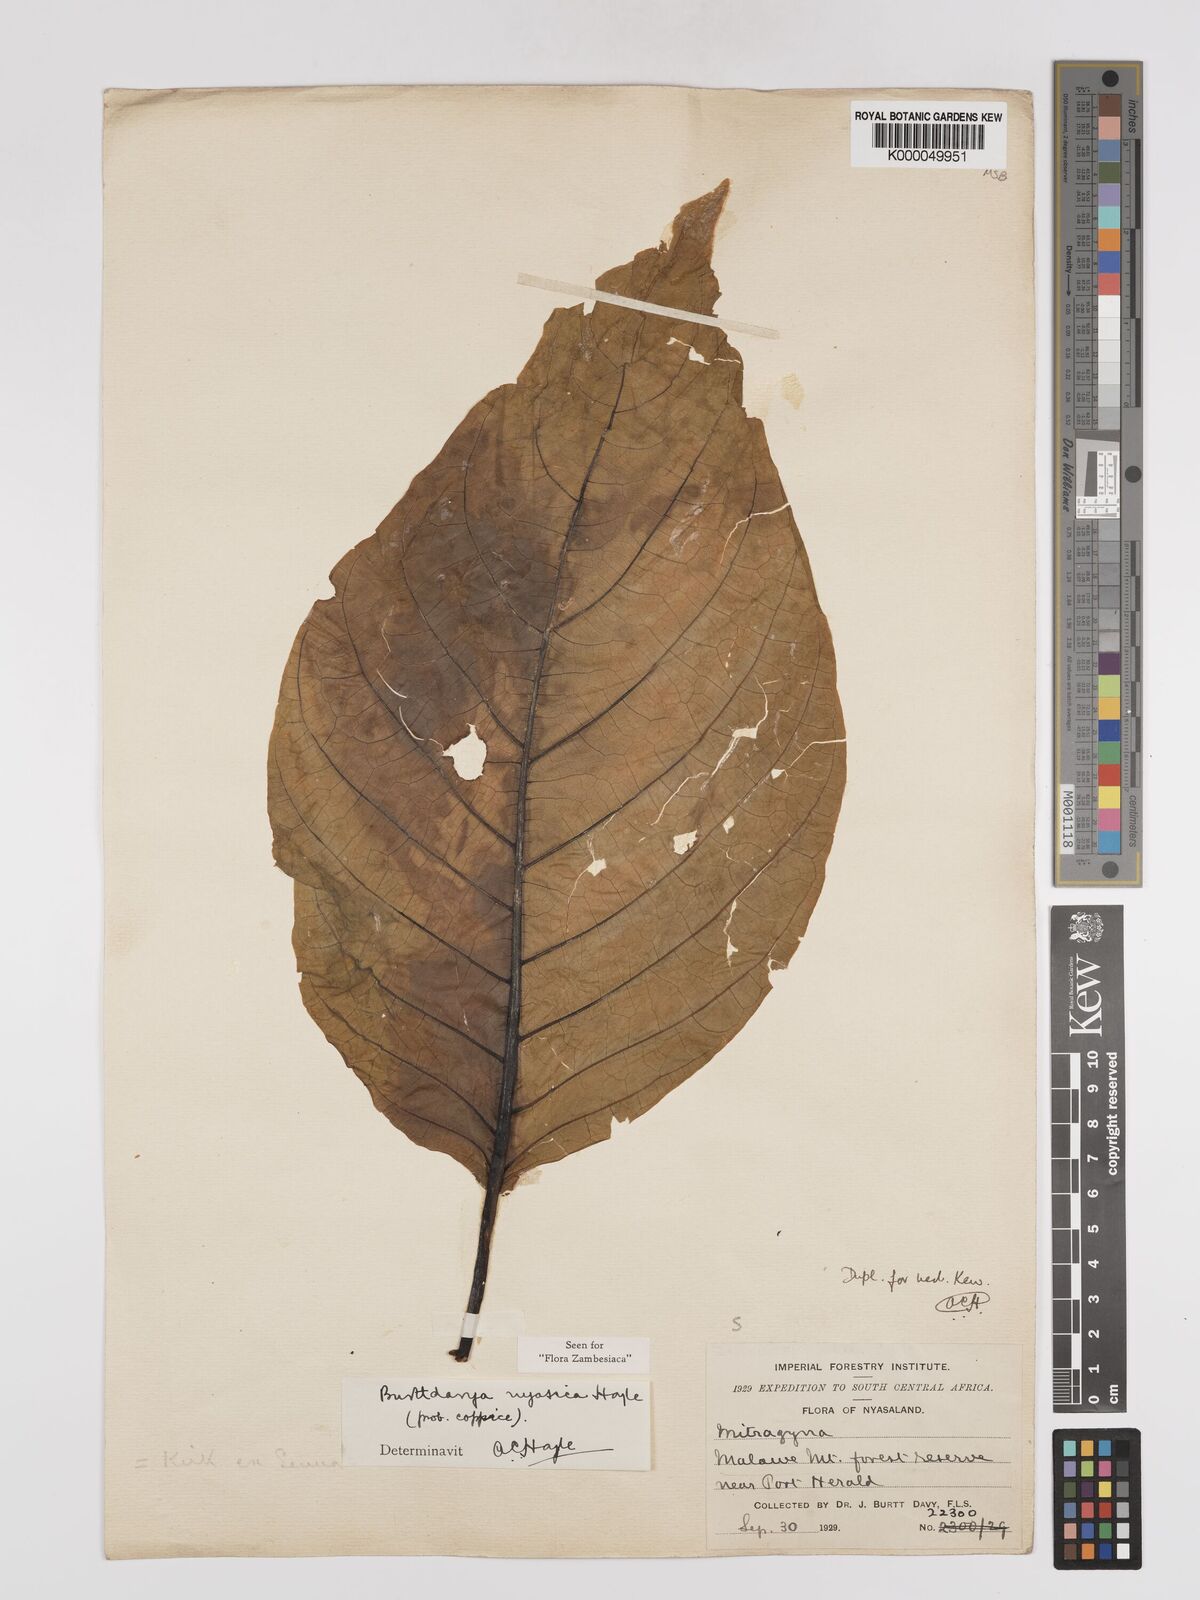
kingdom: Plantae
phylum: Tracheophyta
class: Magnoliopsida
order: Gentianales
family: Rubiaceae
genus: Nauclea
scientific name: Nauclea
